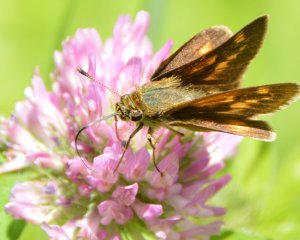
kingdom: Animalia
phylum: Arthropoda
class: Insecta
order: Lepidoptera
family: Hesperiidae
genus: Polites
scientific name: Polites
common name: Long Dash Skipper
